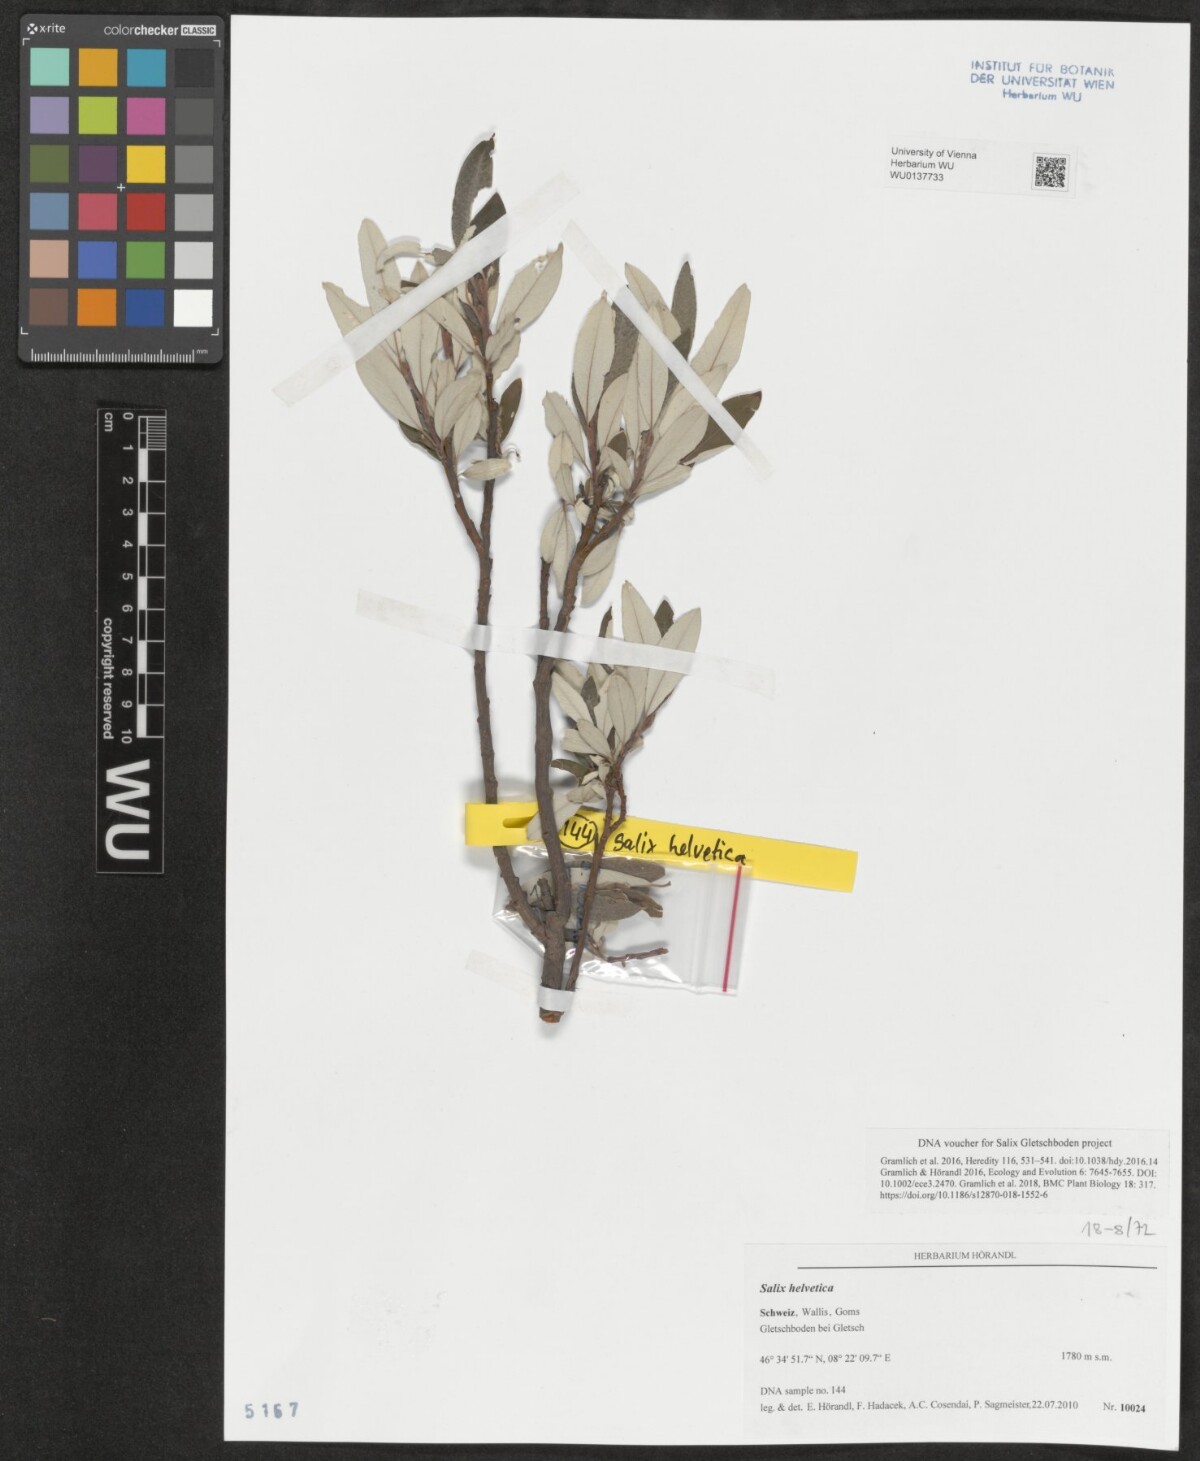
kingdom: Plantae
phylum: Tracheophyta
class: Magnoliopsida
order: Malpighiales
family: Salicaceae
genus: Salix
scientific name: Salix helvetica
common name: Swiss willow
